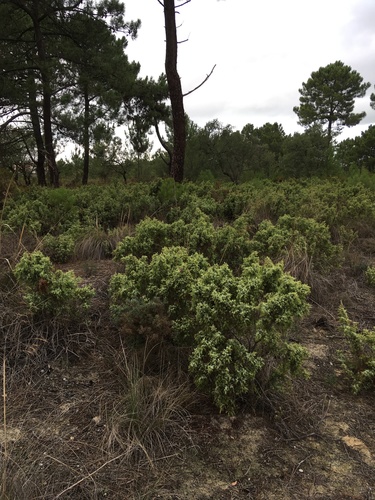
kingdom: Plantae
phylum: Tracheophyta
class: Pinopsida
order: Pinales
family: Cupressaceae
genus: Juniperus
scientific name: Juniperus oxycedrus
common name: Prickly juniper
